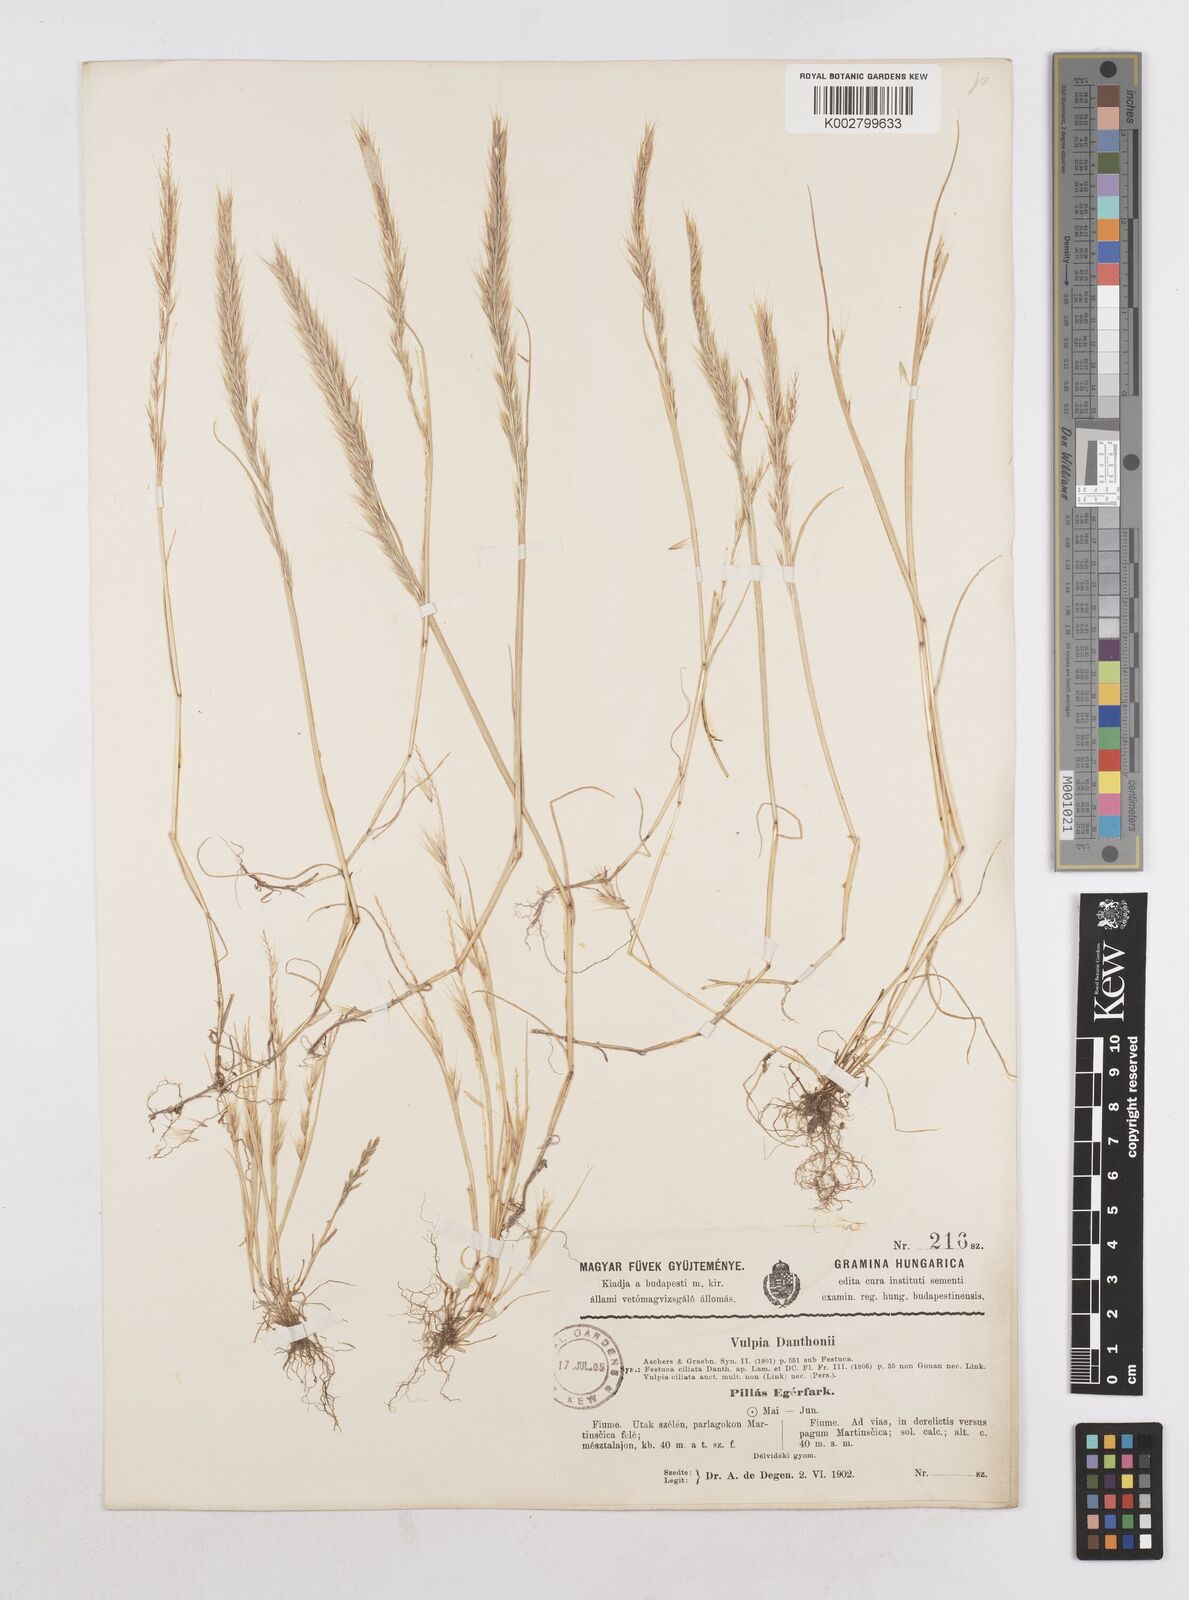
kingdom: Plantae
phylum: Tracheophyta
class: Liliopsida
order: Poales
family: Poaceae
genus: Festuca
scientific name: Festuca
